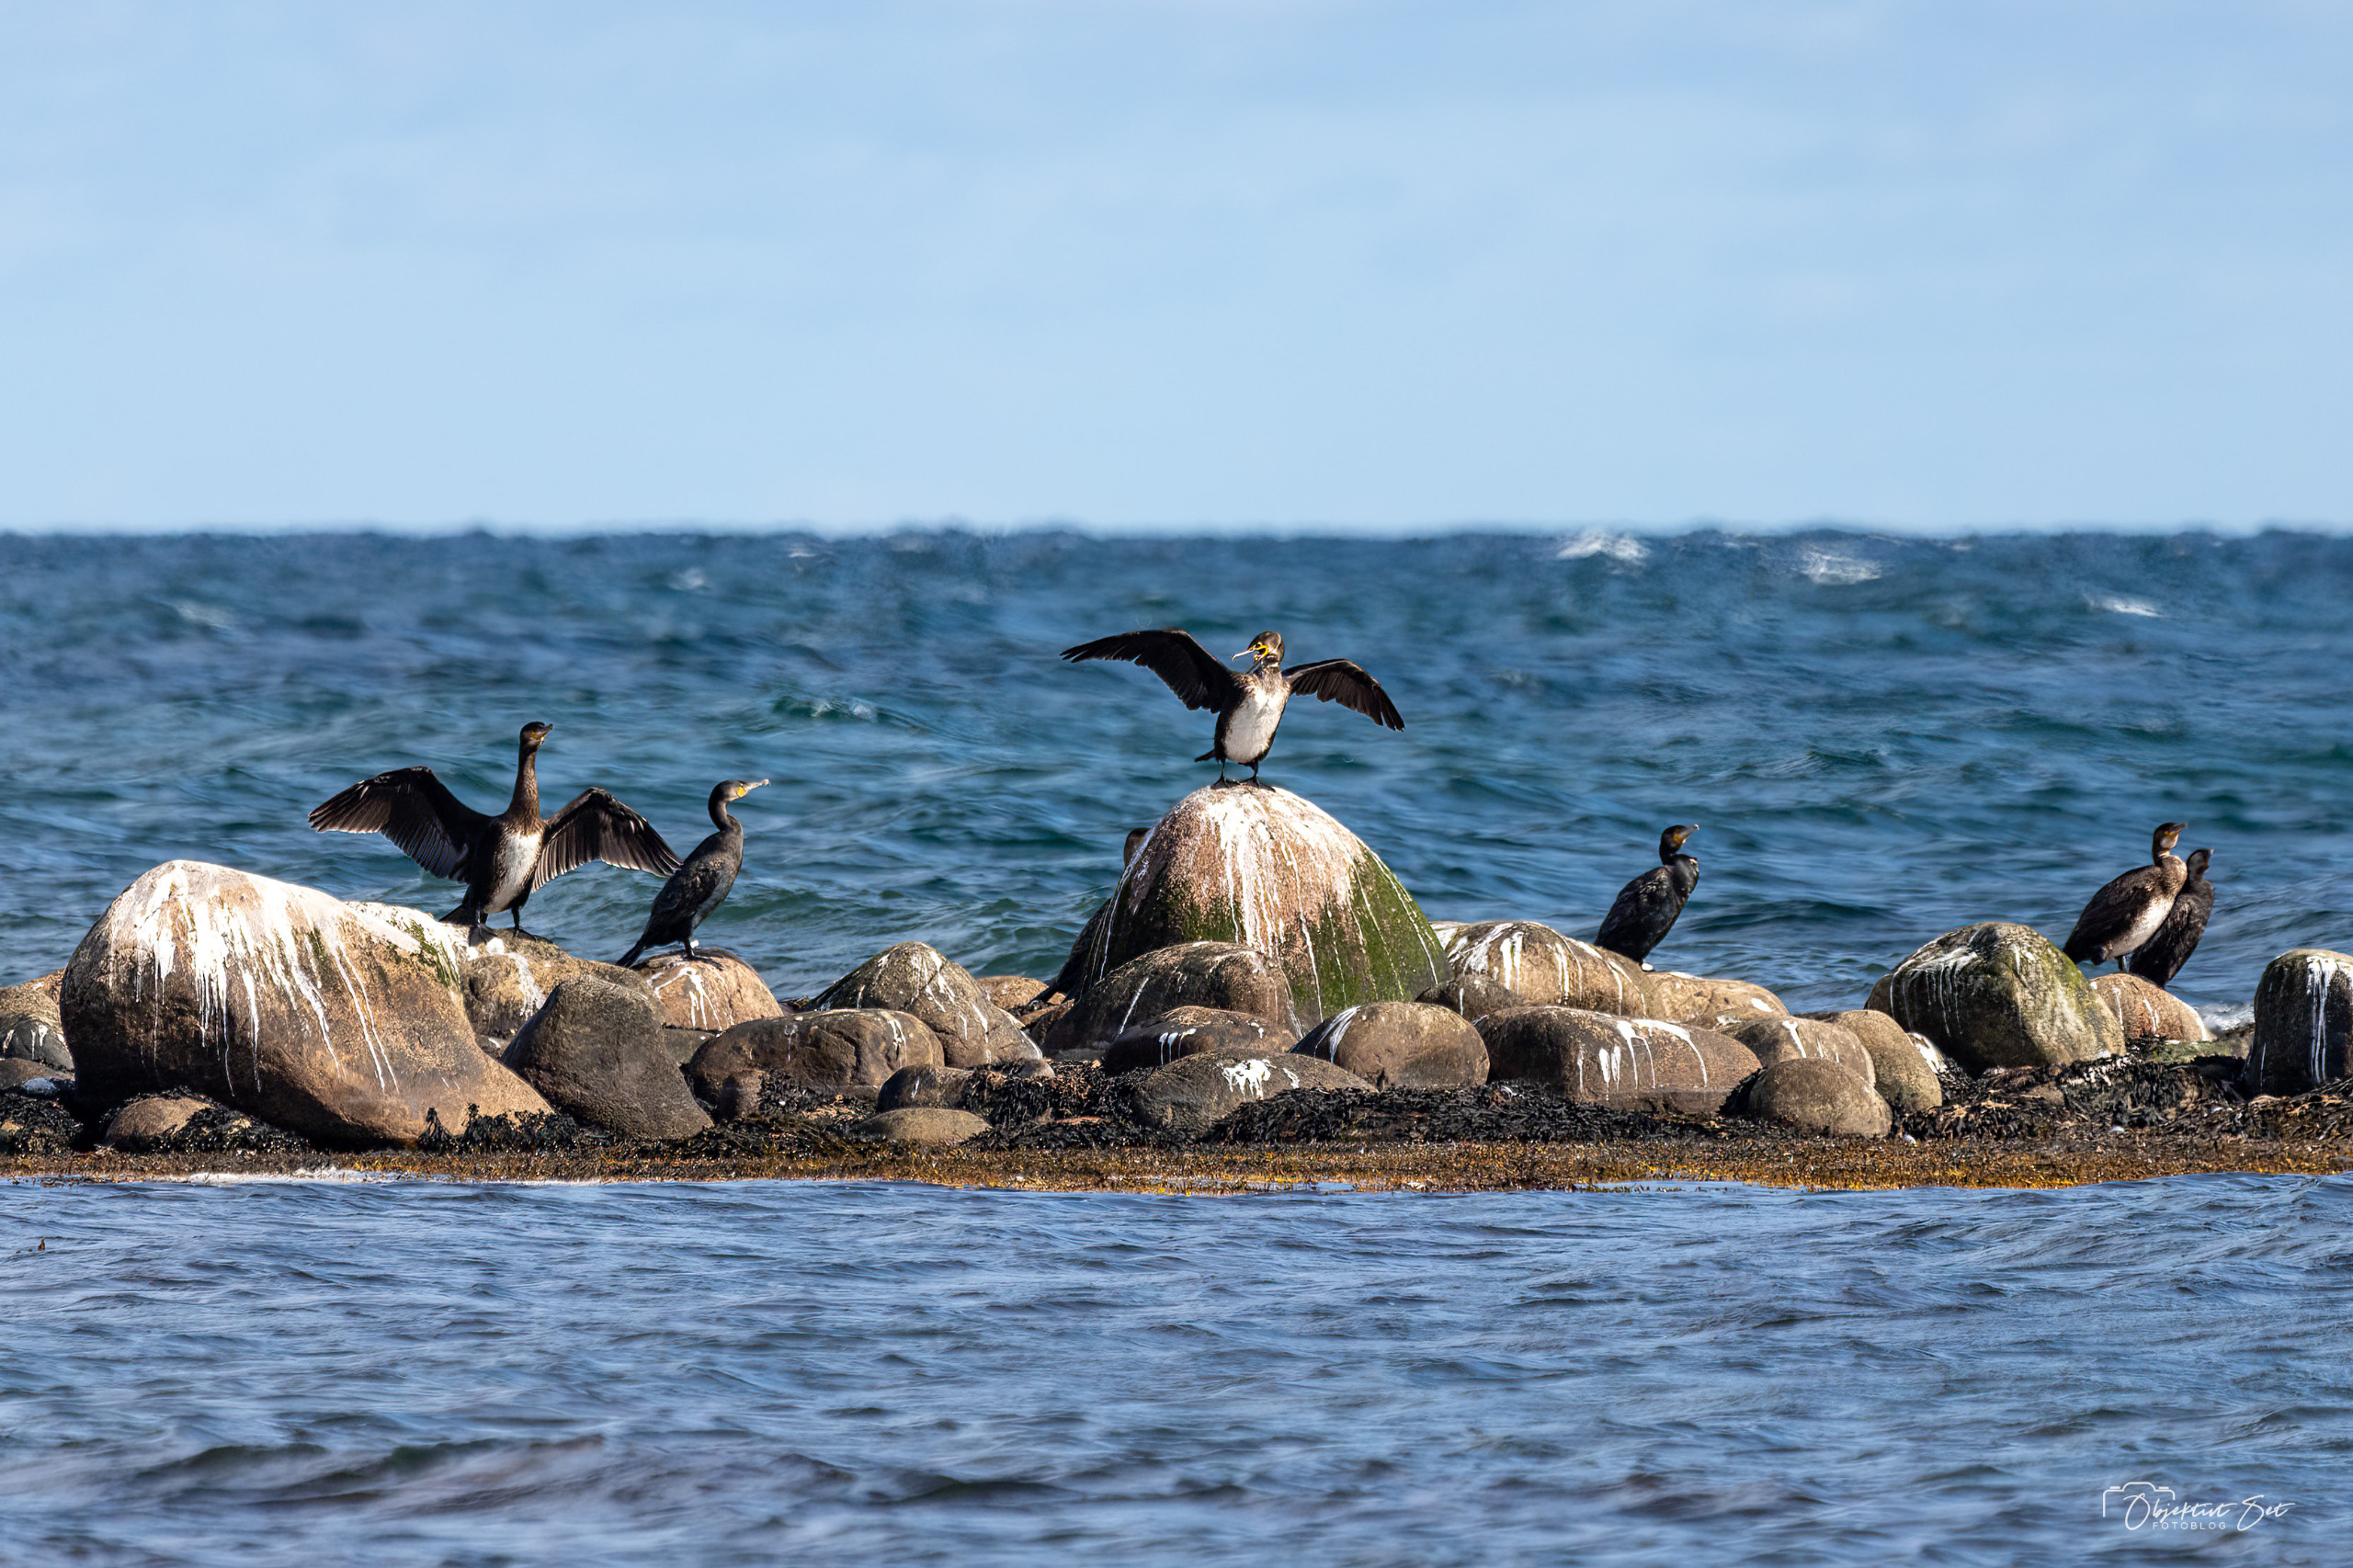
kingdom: Animalia
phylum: Chordata
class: Aves
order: Suliformes
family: Phalacrocoracidae
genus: Phalacrocorax
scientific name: Phalacrocorax carbo
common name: Skarv
